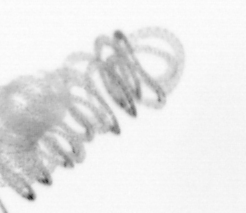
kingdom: Chromista
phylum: Ochrophyta
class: Bacillariophyceae
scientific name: Bacillariophyceae
